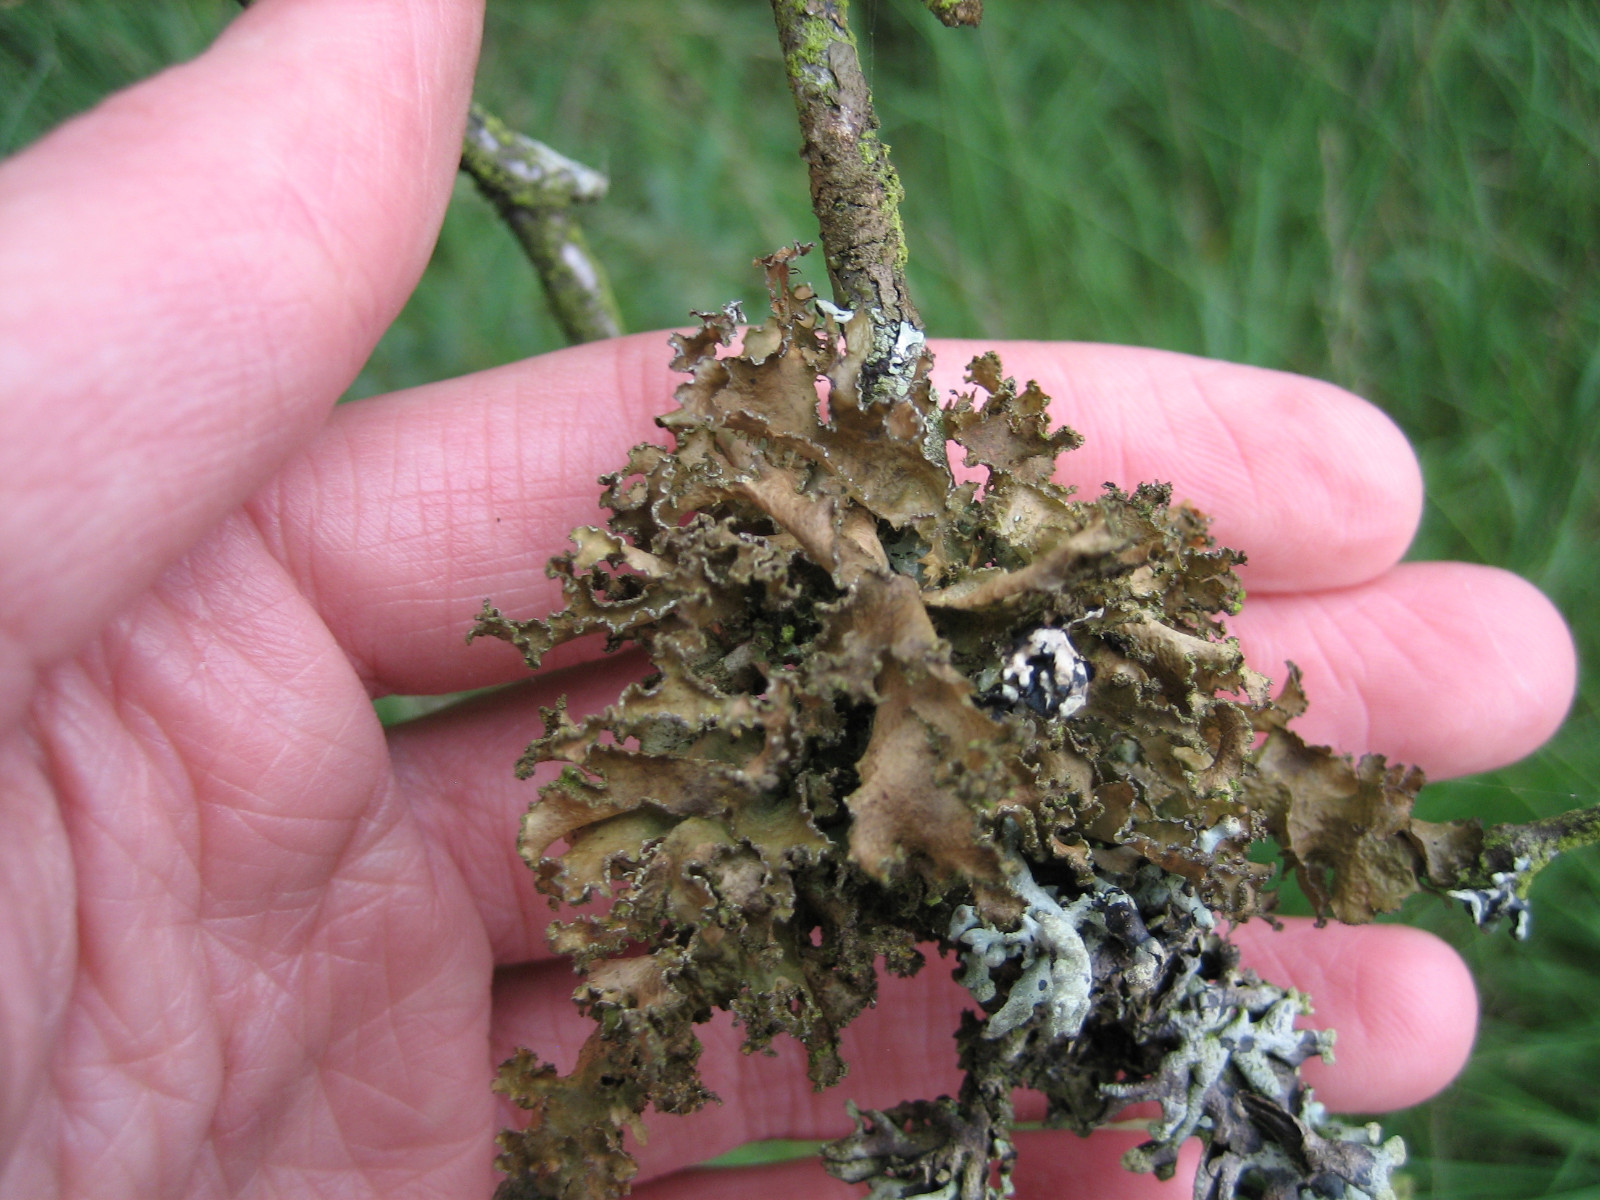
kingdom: Fungi
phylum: Ascomycota
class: Lecanoromycetes
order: Lecanorales
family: Parmeliaceae
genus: Nephromopsis
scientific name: Nephromopsis chlorophylla
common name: olivenbrun kruslav
